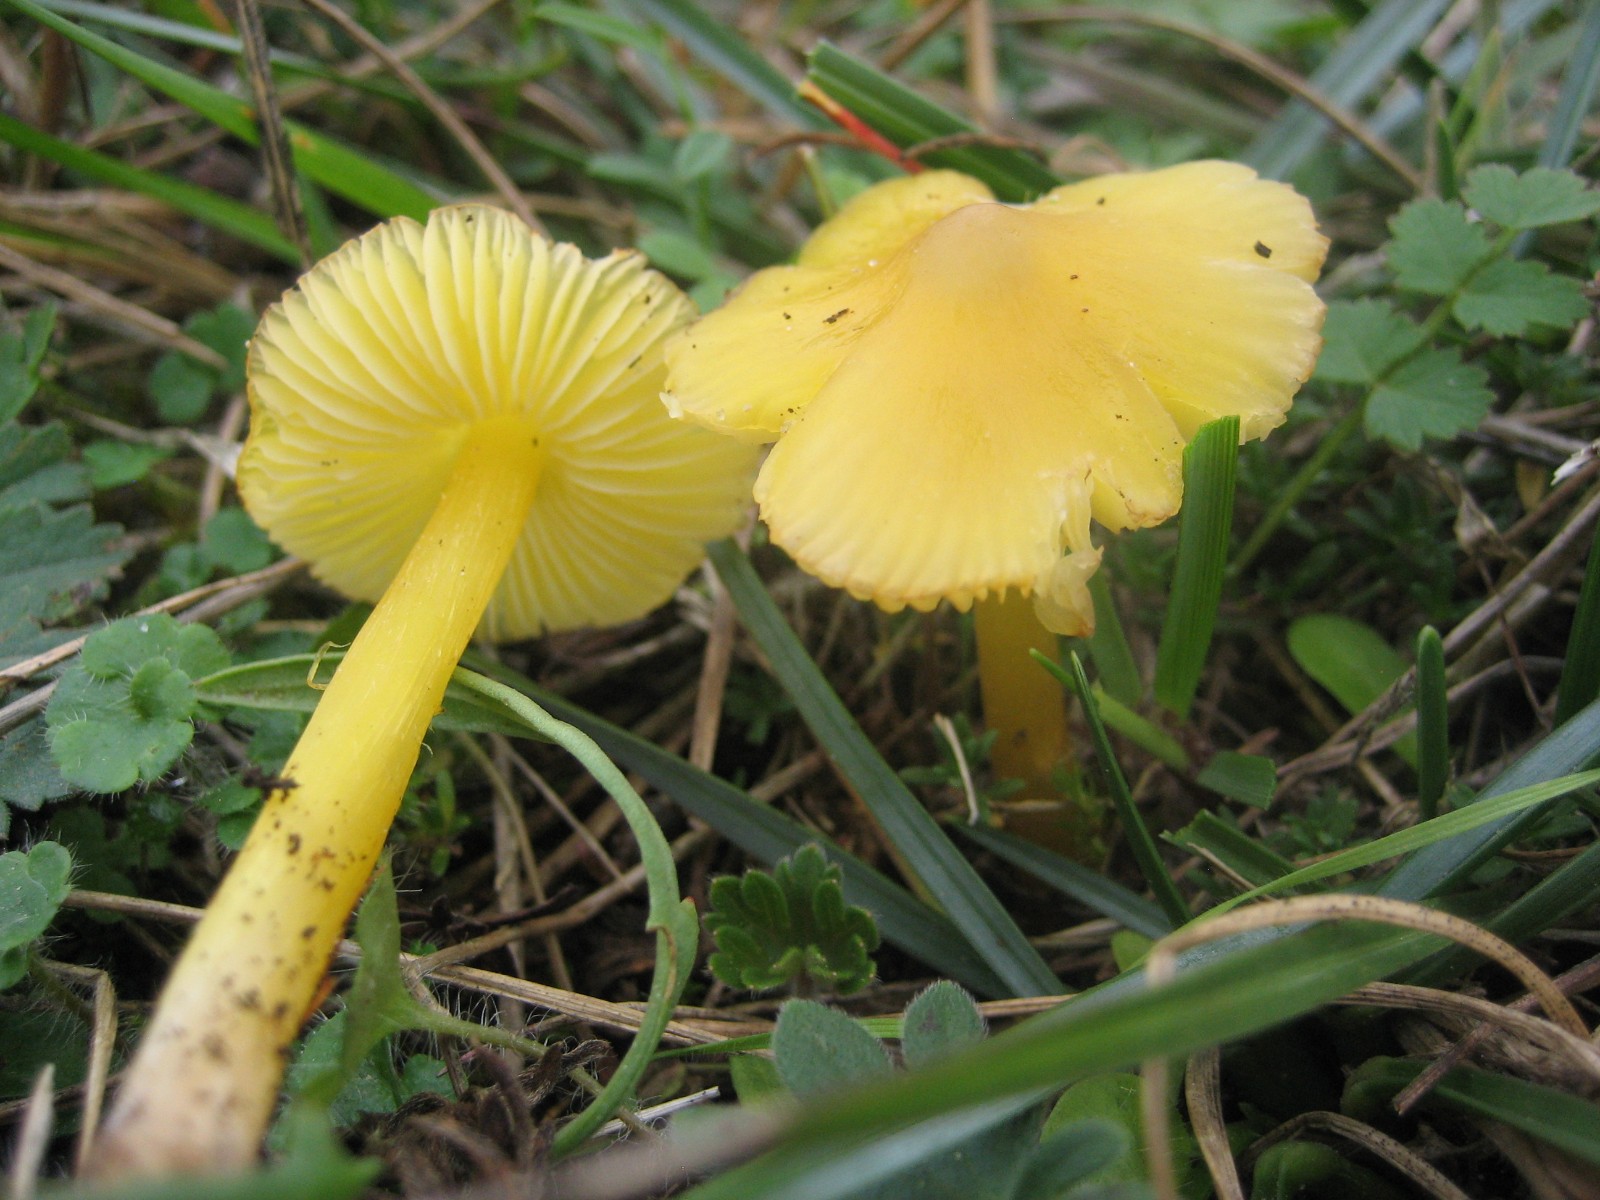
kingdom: Fungi
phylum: Basidiomycota
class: Agaricomycetes
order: Agaricales
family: Hygrophoraceae
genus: Hygrocybe
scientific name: Hygrocybe chlorophana
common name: gul vokshat
